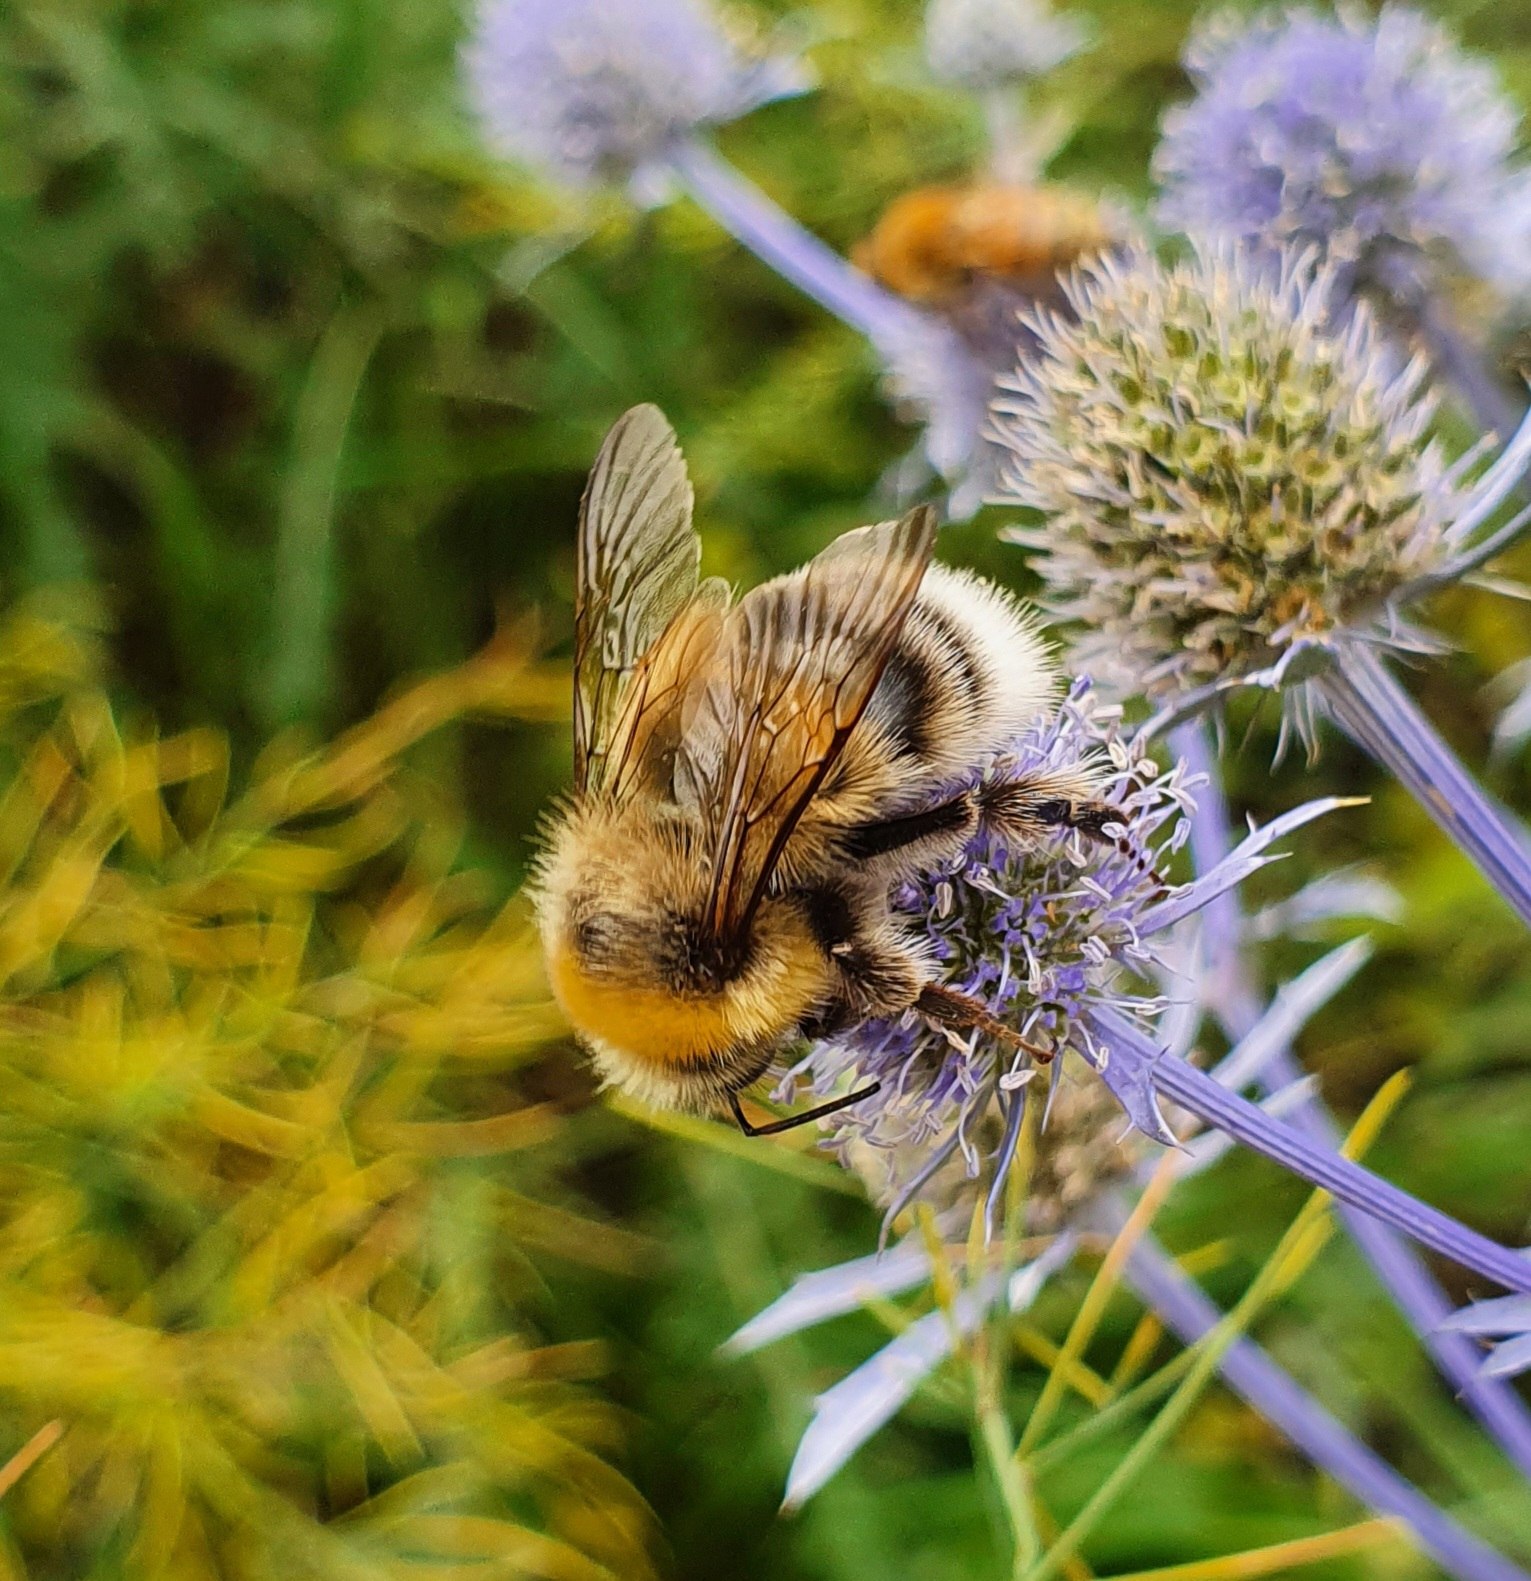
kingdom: Plantae
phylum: Tracheophyta
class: Magnoliopsida
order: Apiales
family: Apiaceae
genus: Eryngium
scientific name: Eryngium planum
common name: Russisk mandstro
